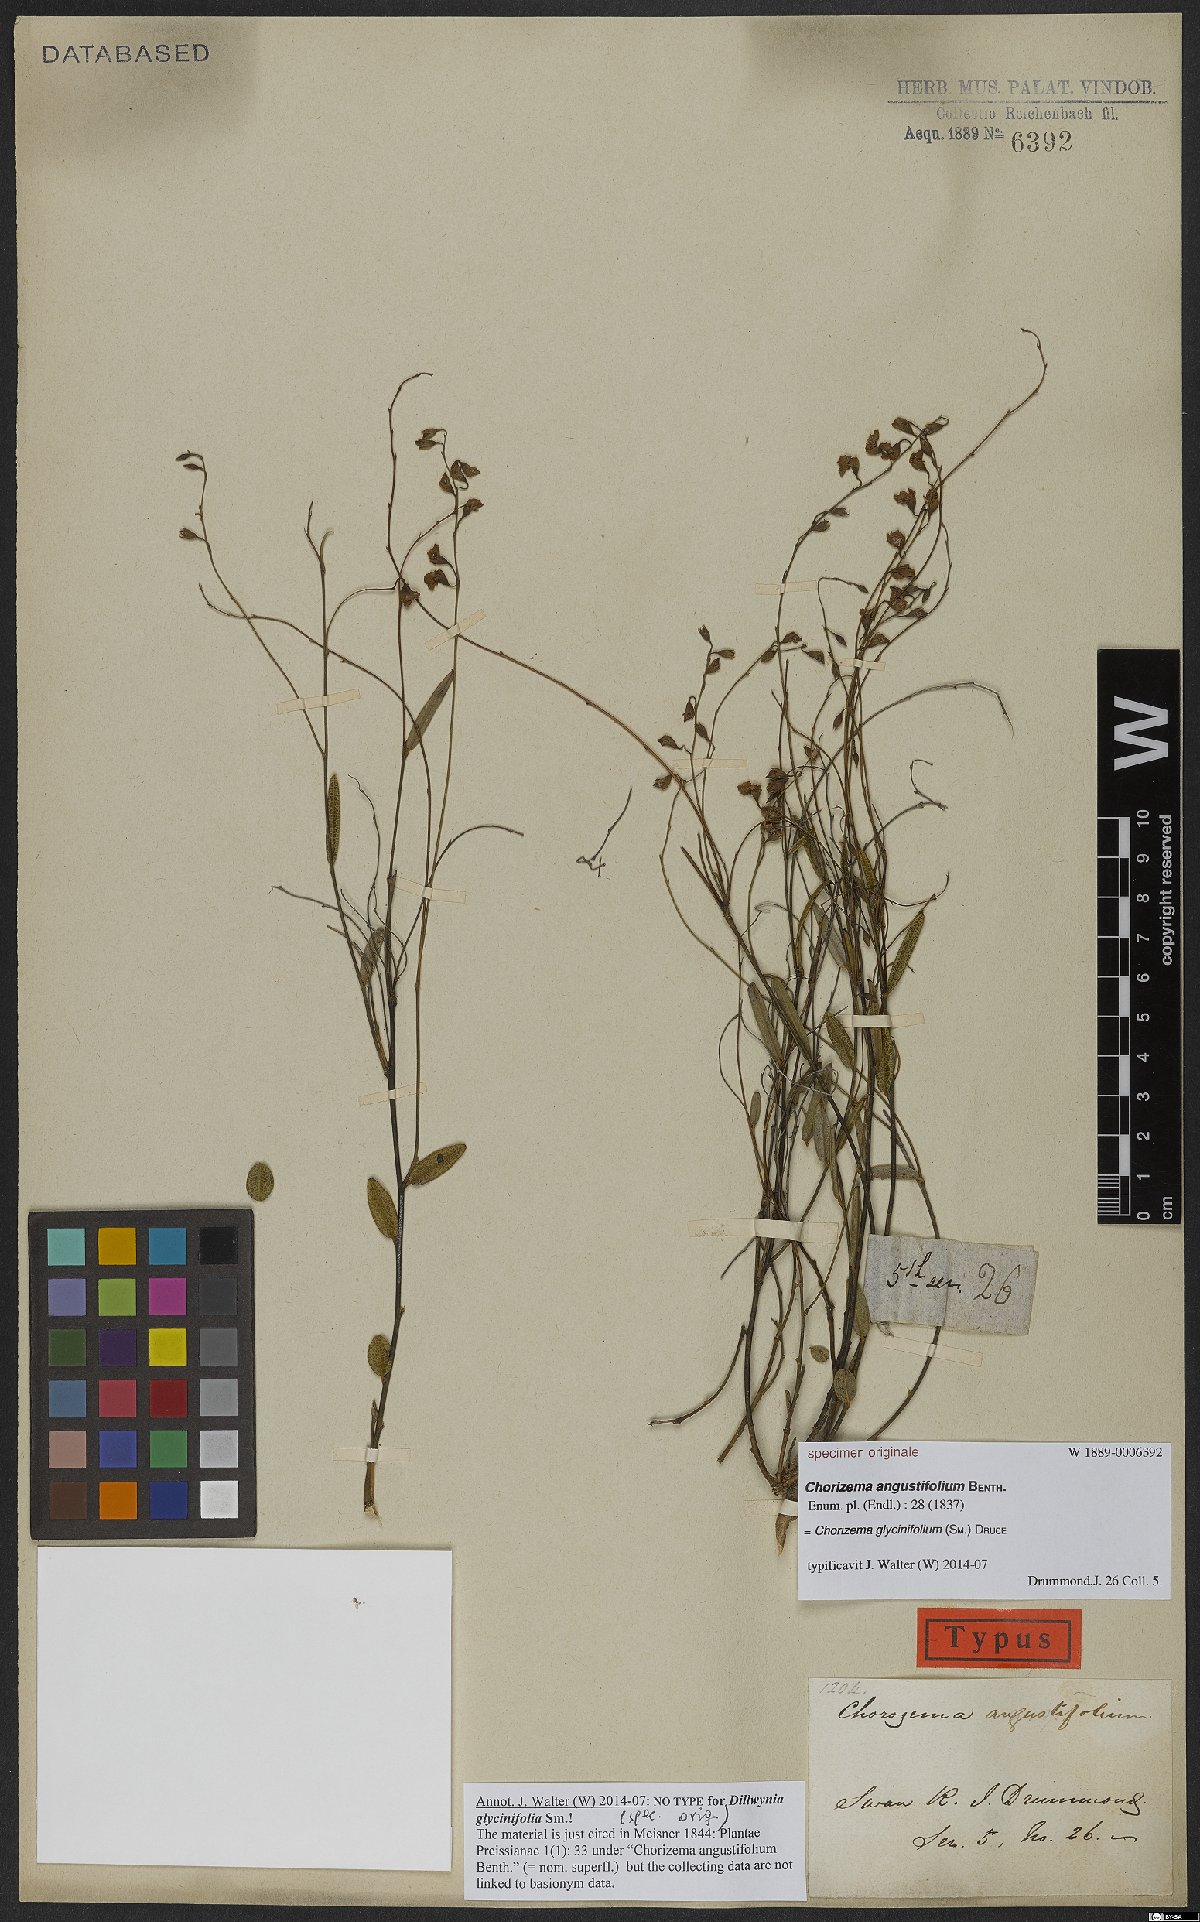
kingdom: Plantae
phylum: Tracheophyta
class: Magnoliopsida
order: Fabales
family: Fabaceae
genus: Chorizema
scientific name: Chorizema glycinifolium
